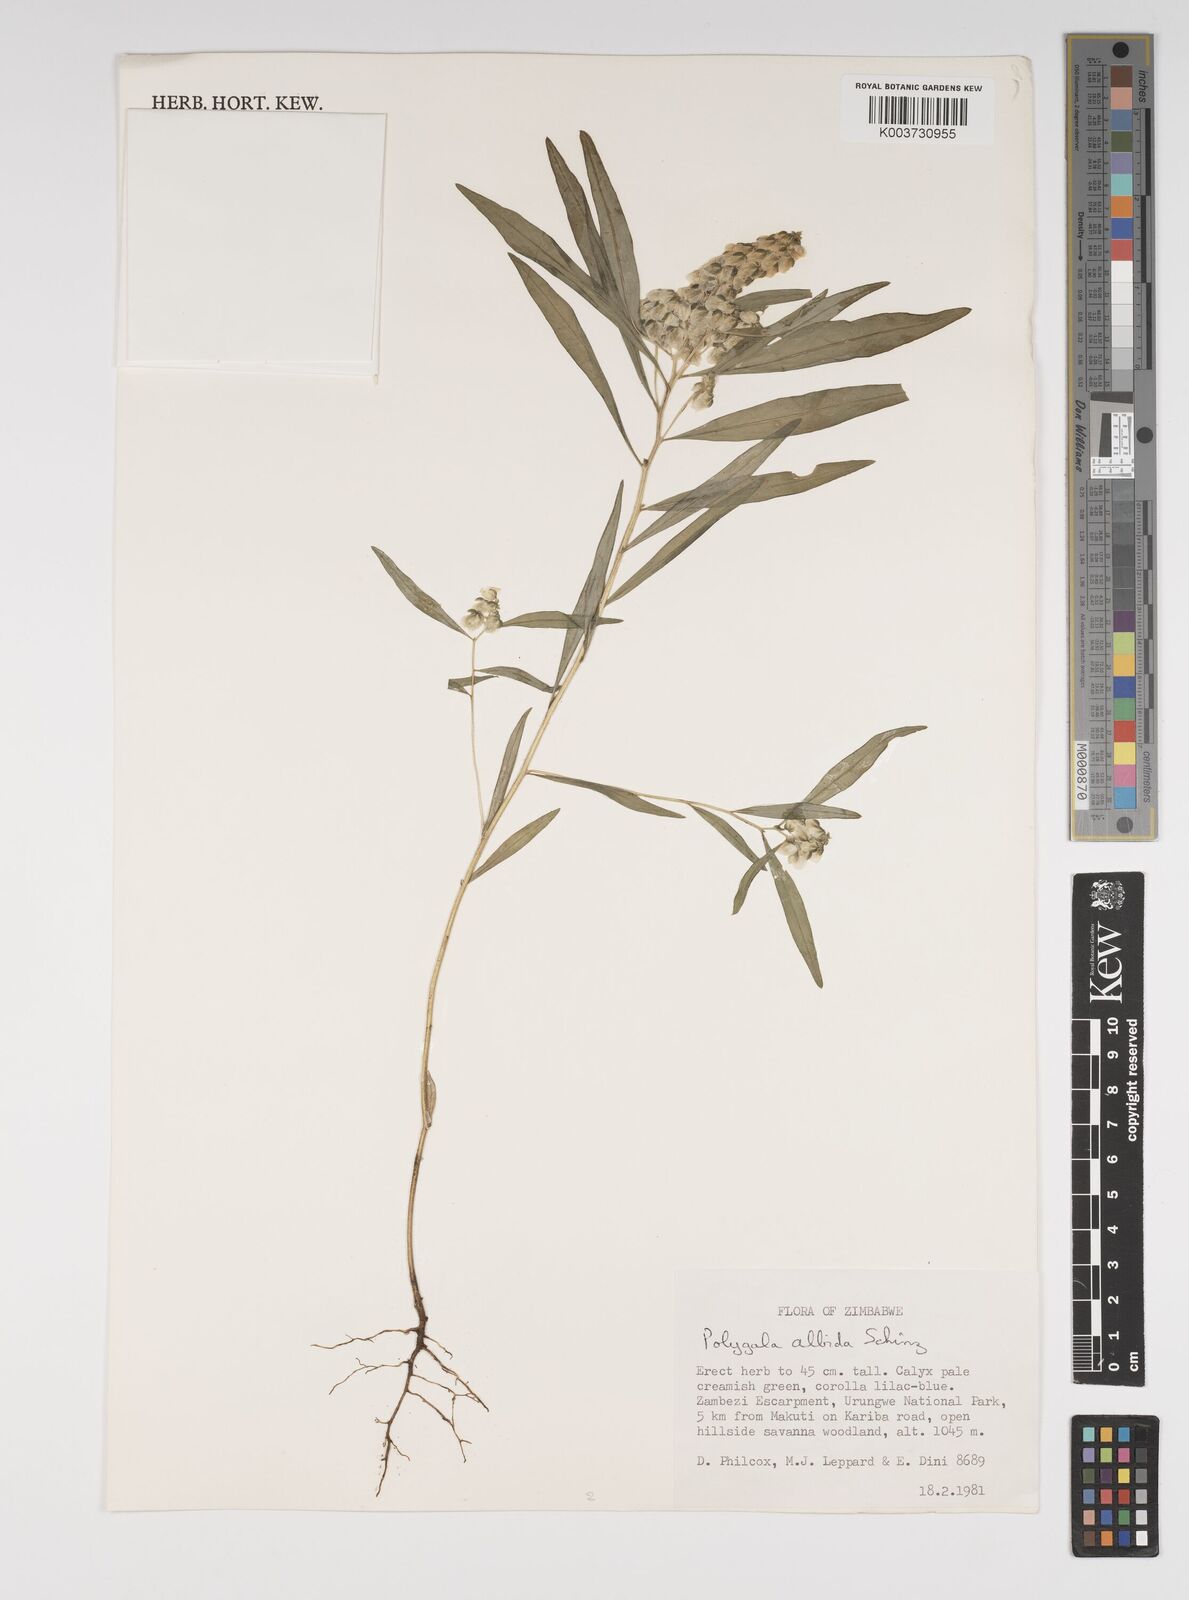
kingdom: Plantae
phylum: Tracheophyta
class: Magnoliopsida
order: Fabales
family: Polygalaceae
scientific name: Polygalaceae
